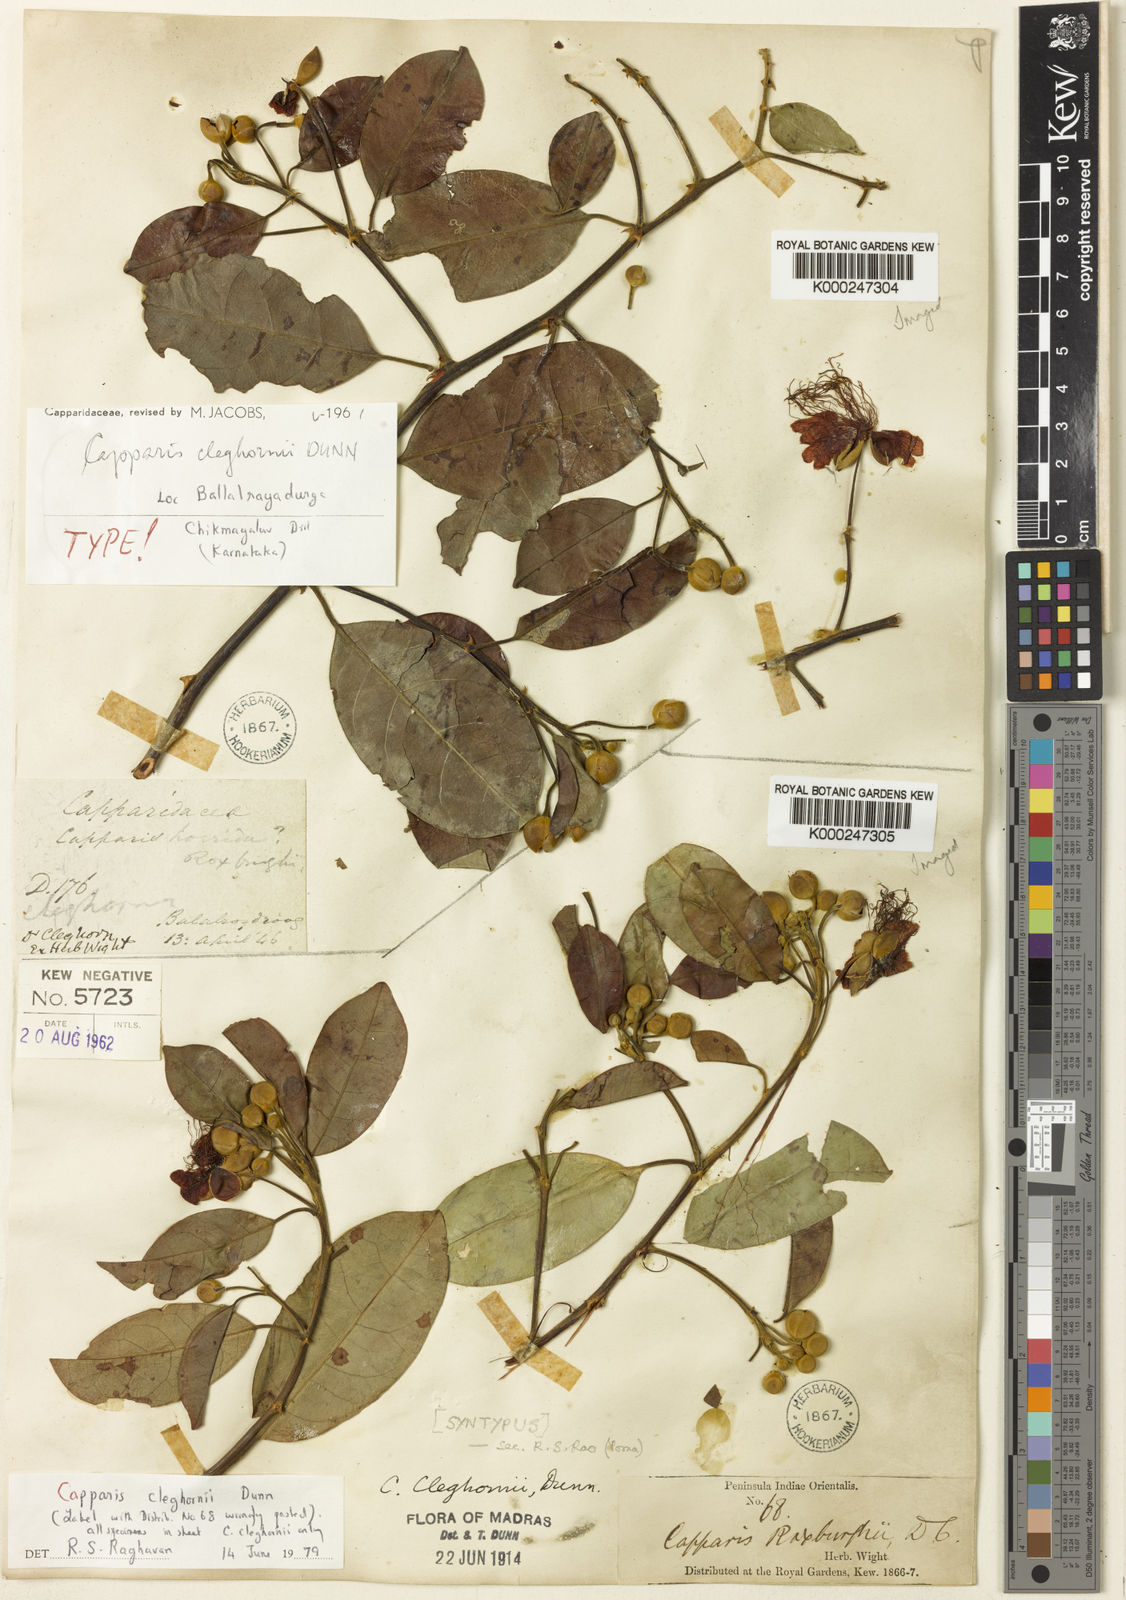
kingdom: Plantae
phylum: Tracheophyta
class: Magnoliopsida
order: Brassicales
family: Capparaceae
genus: Capparis
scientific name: Capparis cleghornii
